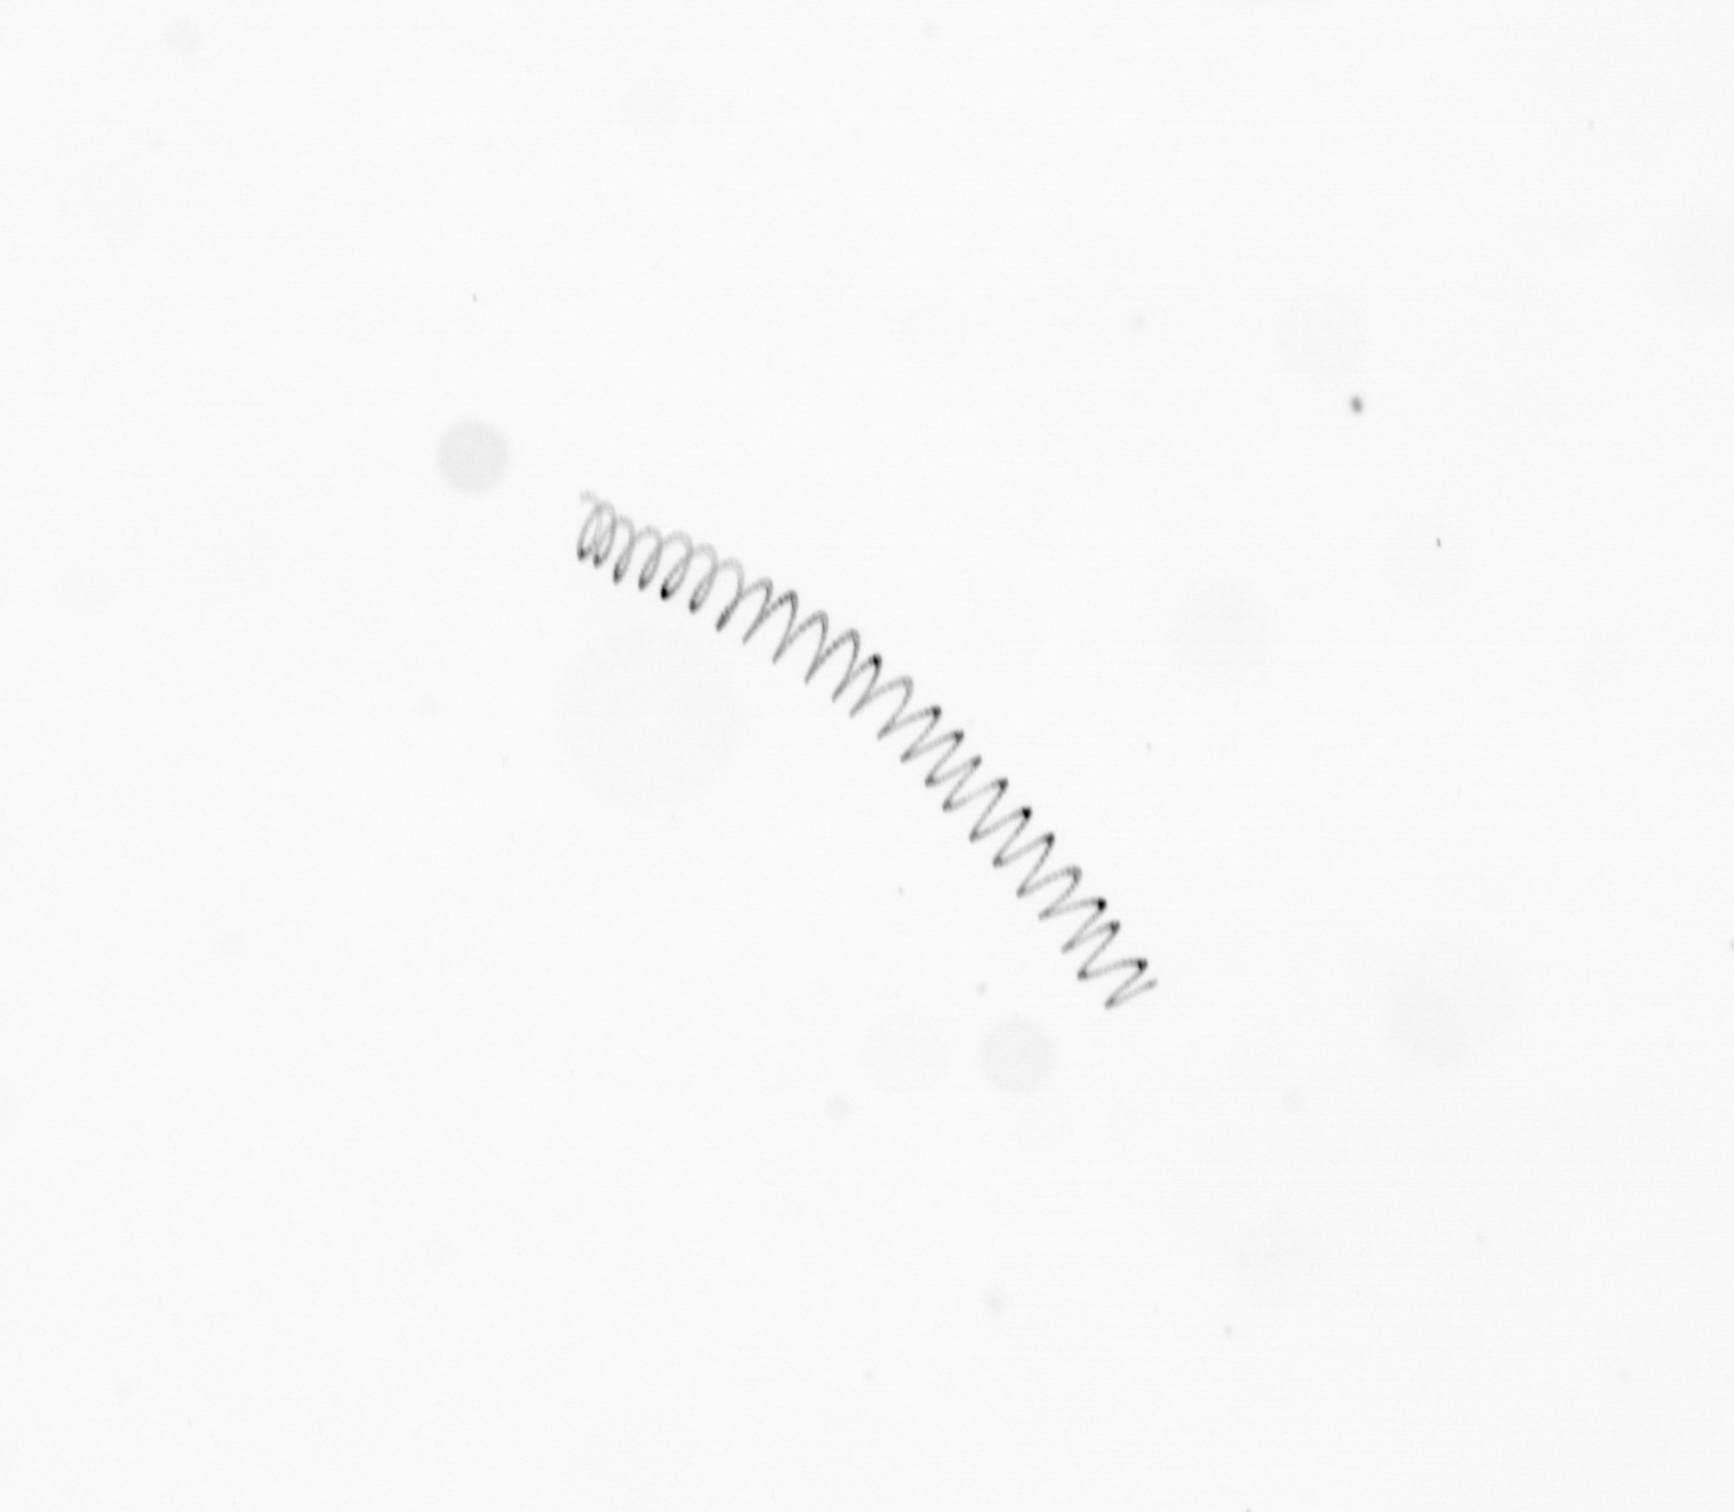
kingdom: Chromista
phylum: Ochrophyta
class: Bacillariophyceae
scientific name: Bacillariophyceae
